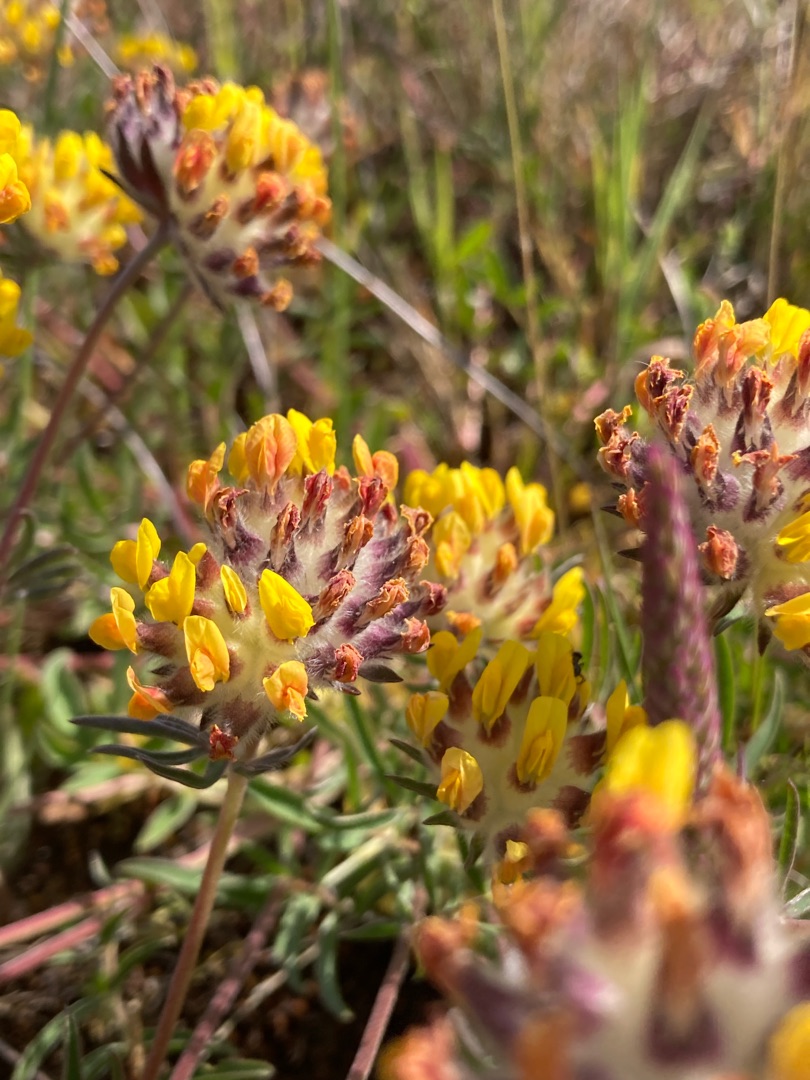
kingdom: Plantae
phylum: Tracheophyta
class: Magnoliopsida
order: Fabales
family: Fabaceae
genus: Anthyllis
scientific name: Anthyllis vulneraria
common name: Rundbælg
